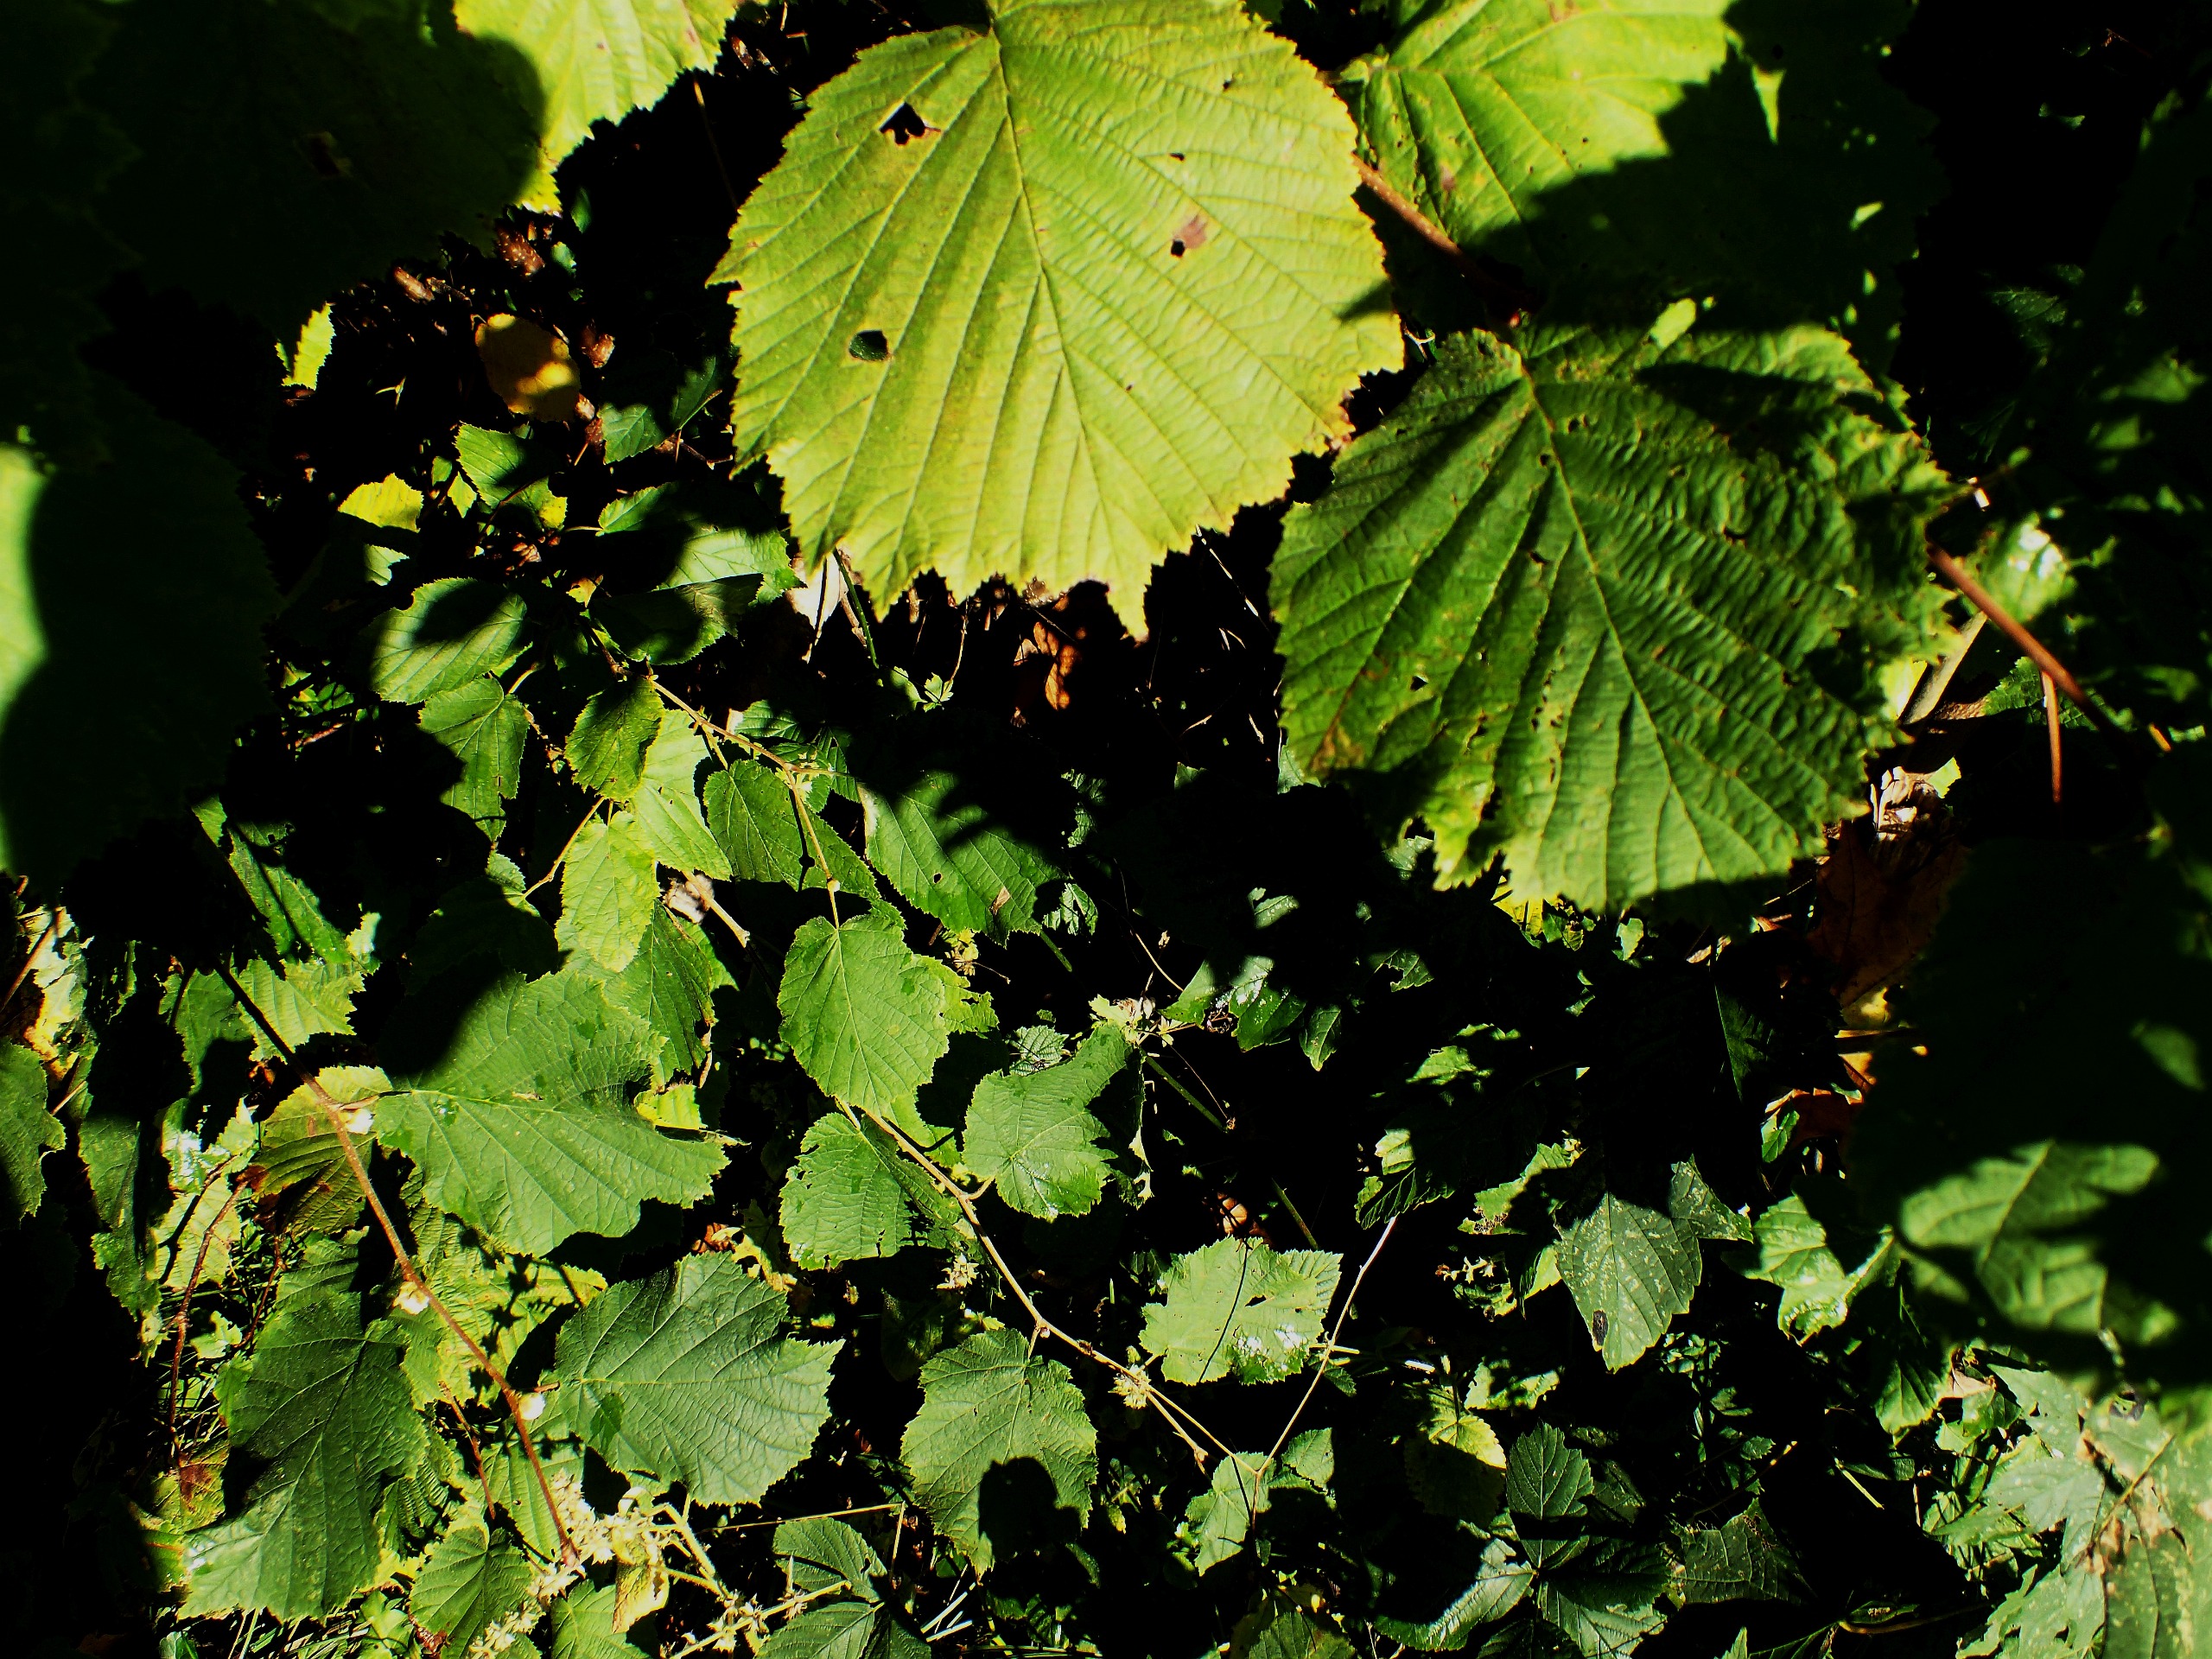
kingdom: Plantae
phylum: Tracheophyta
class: Magnoliopsida
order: Fagales
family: Betulaceae
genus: Corylus
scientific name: Corylus avellana
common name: Hassel
